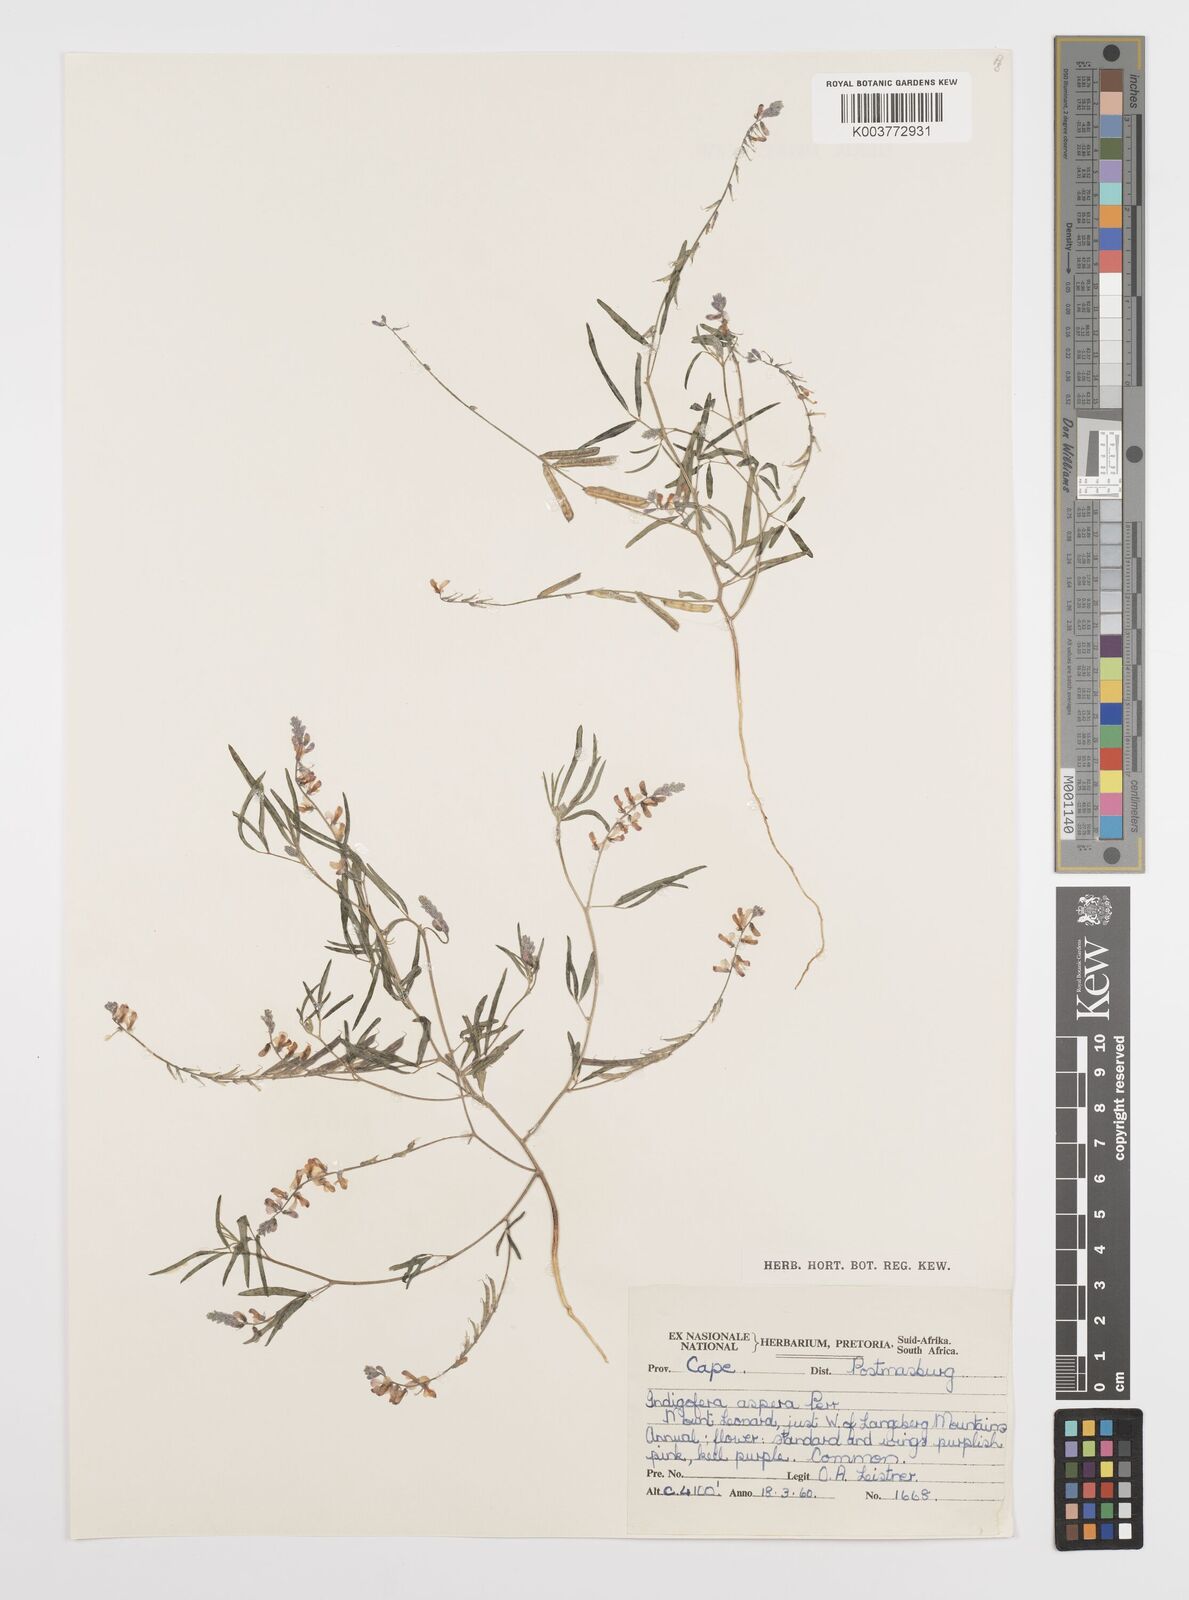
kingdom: Plantae
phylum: Tracheophyta
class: Magnoliopsida
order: Fabales
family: Fabaceae
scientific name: Fabaceae
